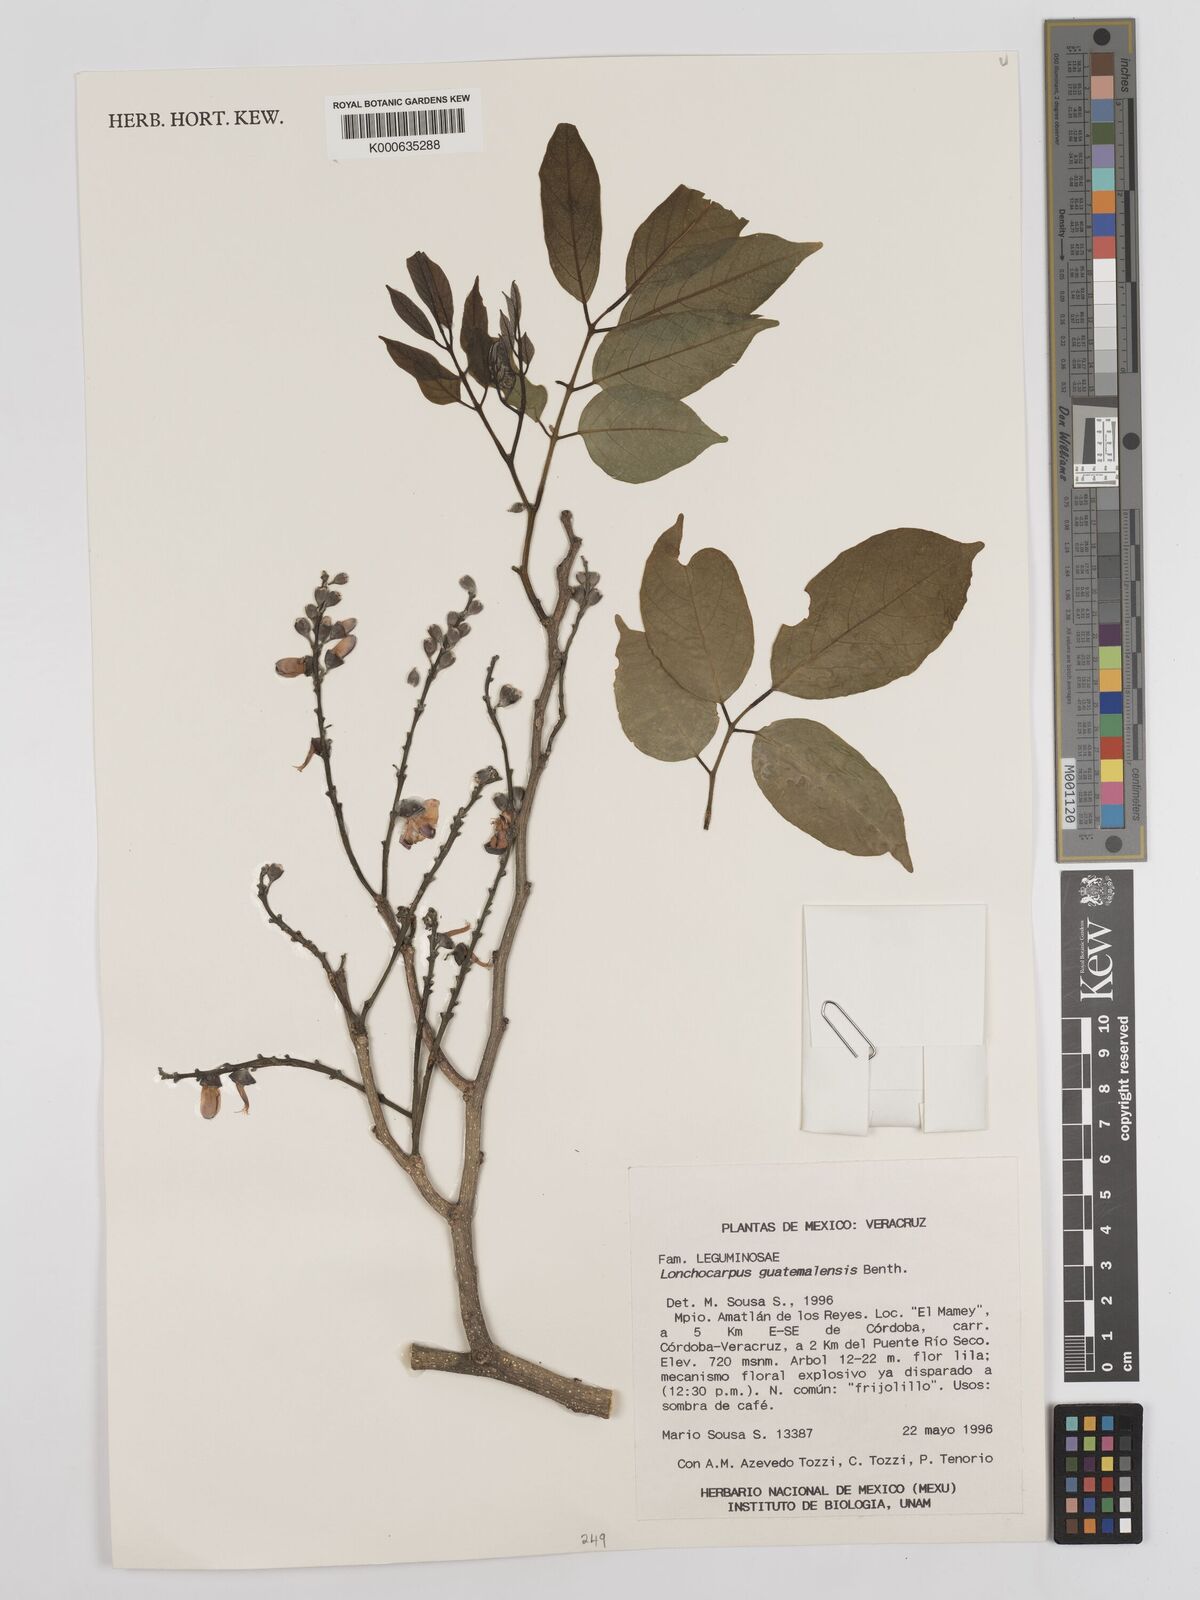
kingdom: Plantae
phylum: Tracheophyta
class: Magnoliopsida
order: Fabales
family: Fabaceae
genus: Lonchocarpus
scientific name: Lonchocarpus guatemalensis
